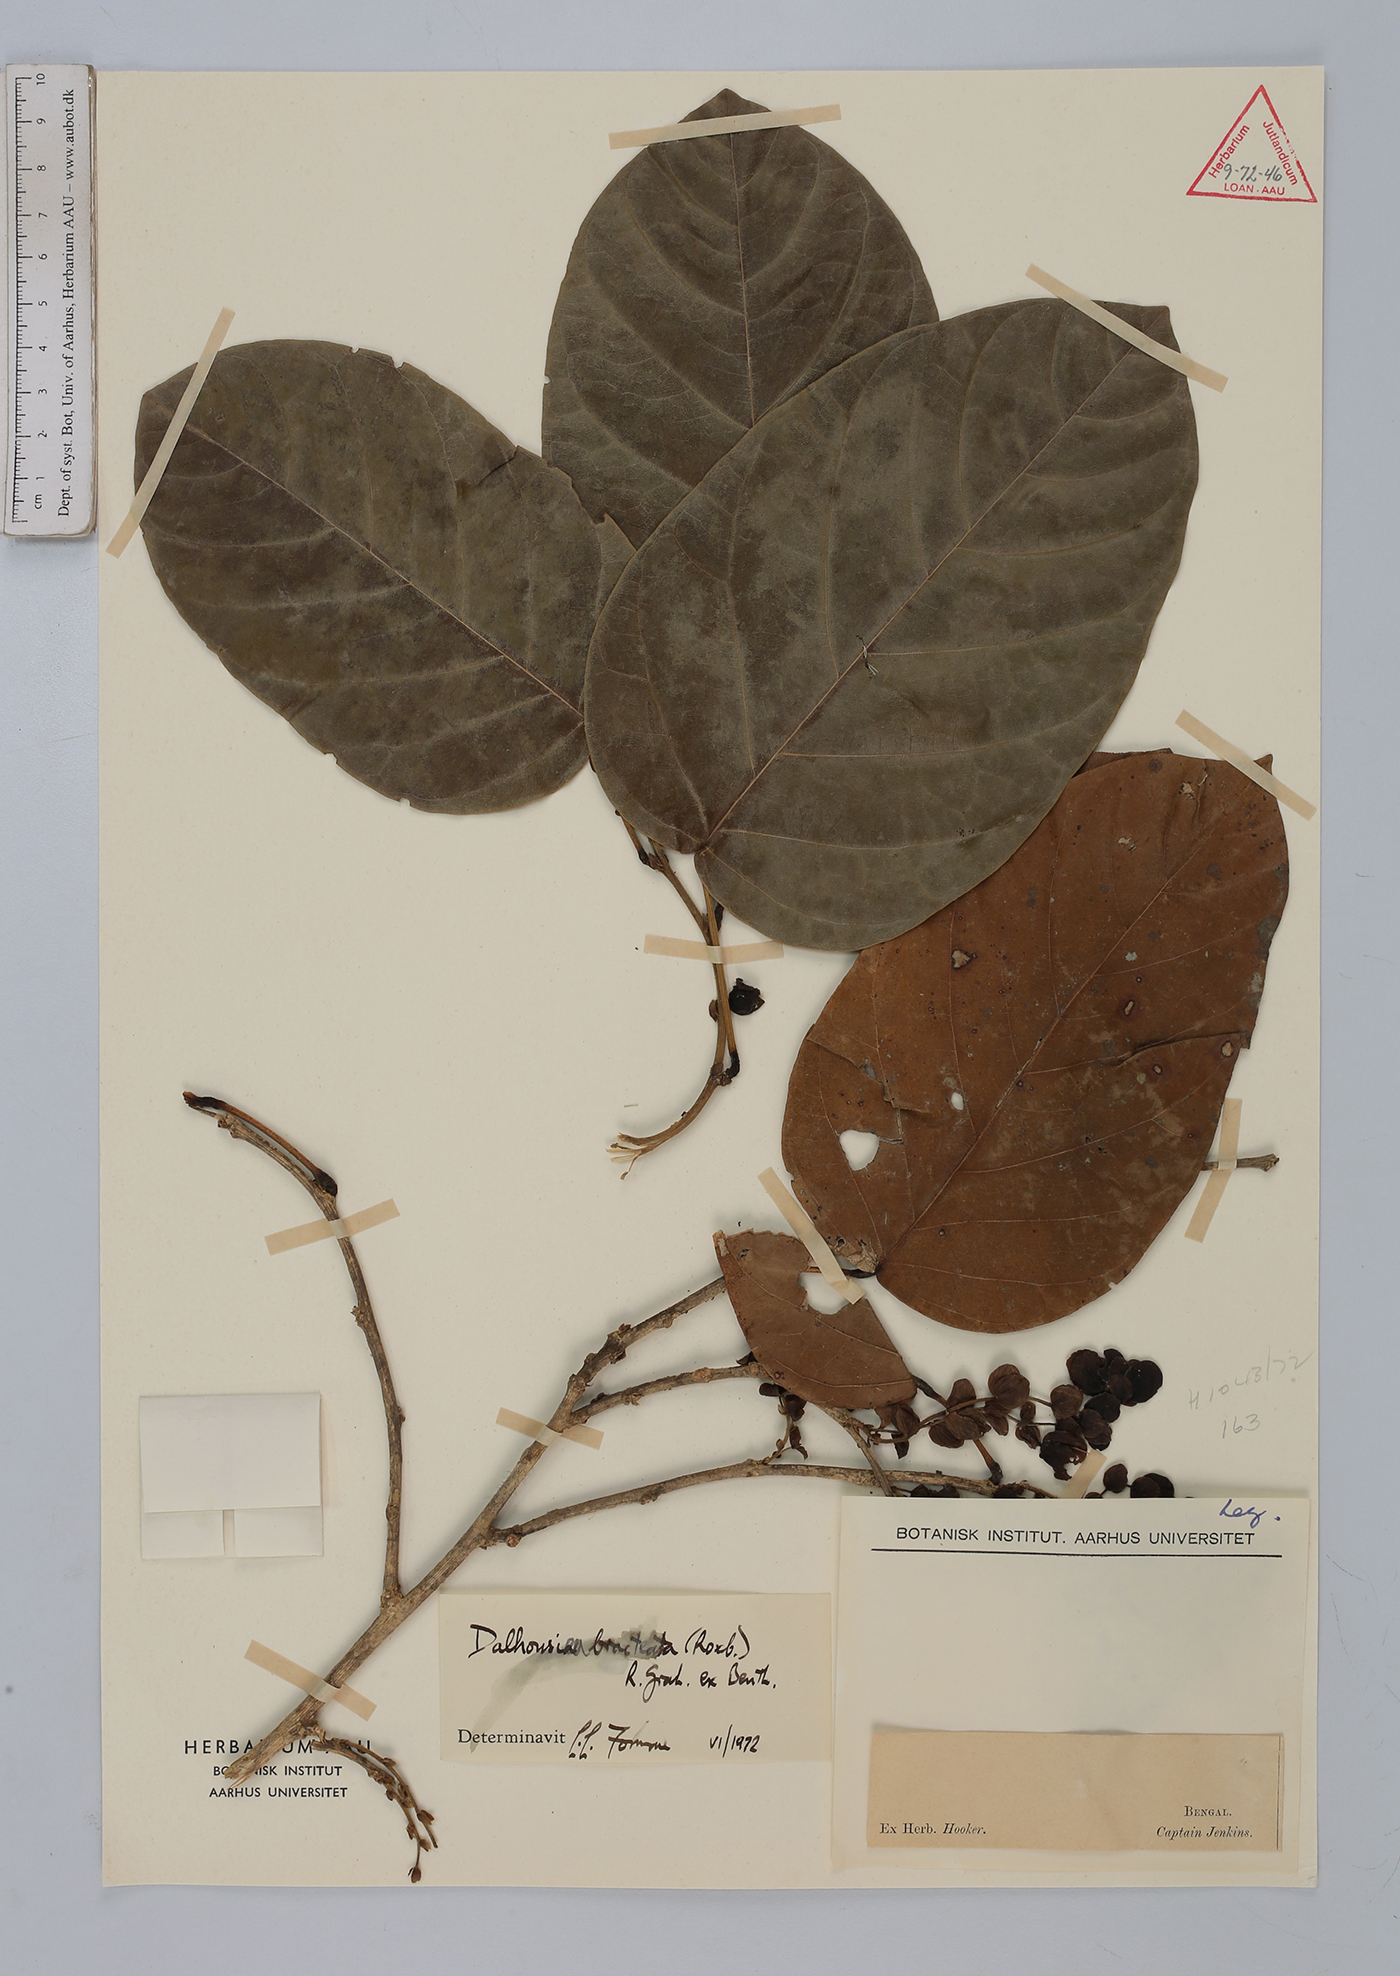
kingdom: Plantae
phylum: Tracheophyta
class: Magnoliopsida
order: Fabales
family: Fabaceae
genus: Dalhousiea
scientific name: Dalhousiea bracteata
